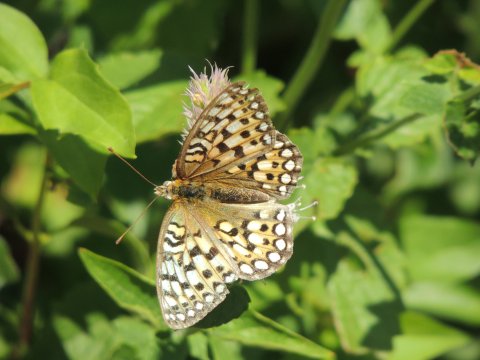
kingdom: Animalia
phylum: Arthropoda
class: Insecta
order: Lepidoptera
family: Nymphalidae
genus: Speyeria
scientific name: Speyeria callippe
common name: Callippe Fritillary
